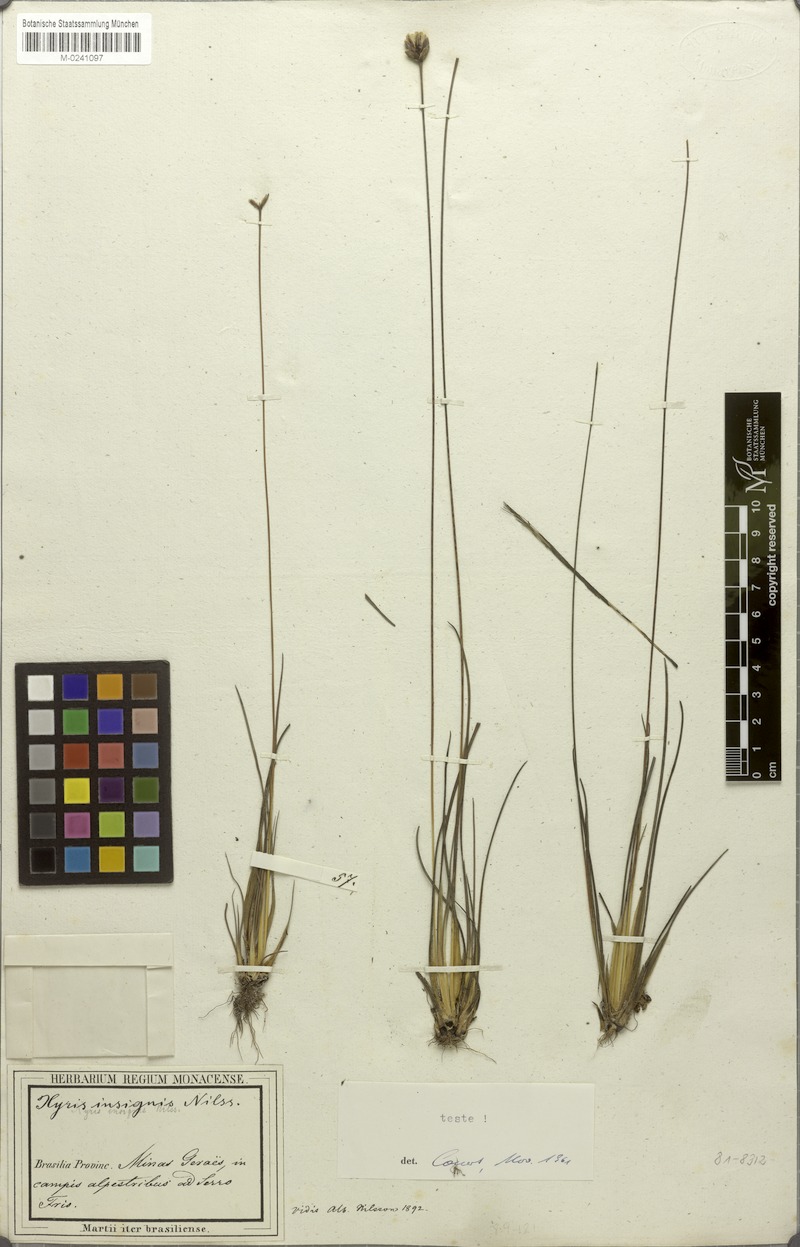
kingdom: Plantae
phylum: Tracheophyta
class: Liliopsida
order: Poales
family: Xyridaceae
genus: Xyris
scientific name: Xyris insignis
